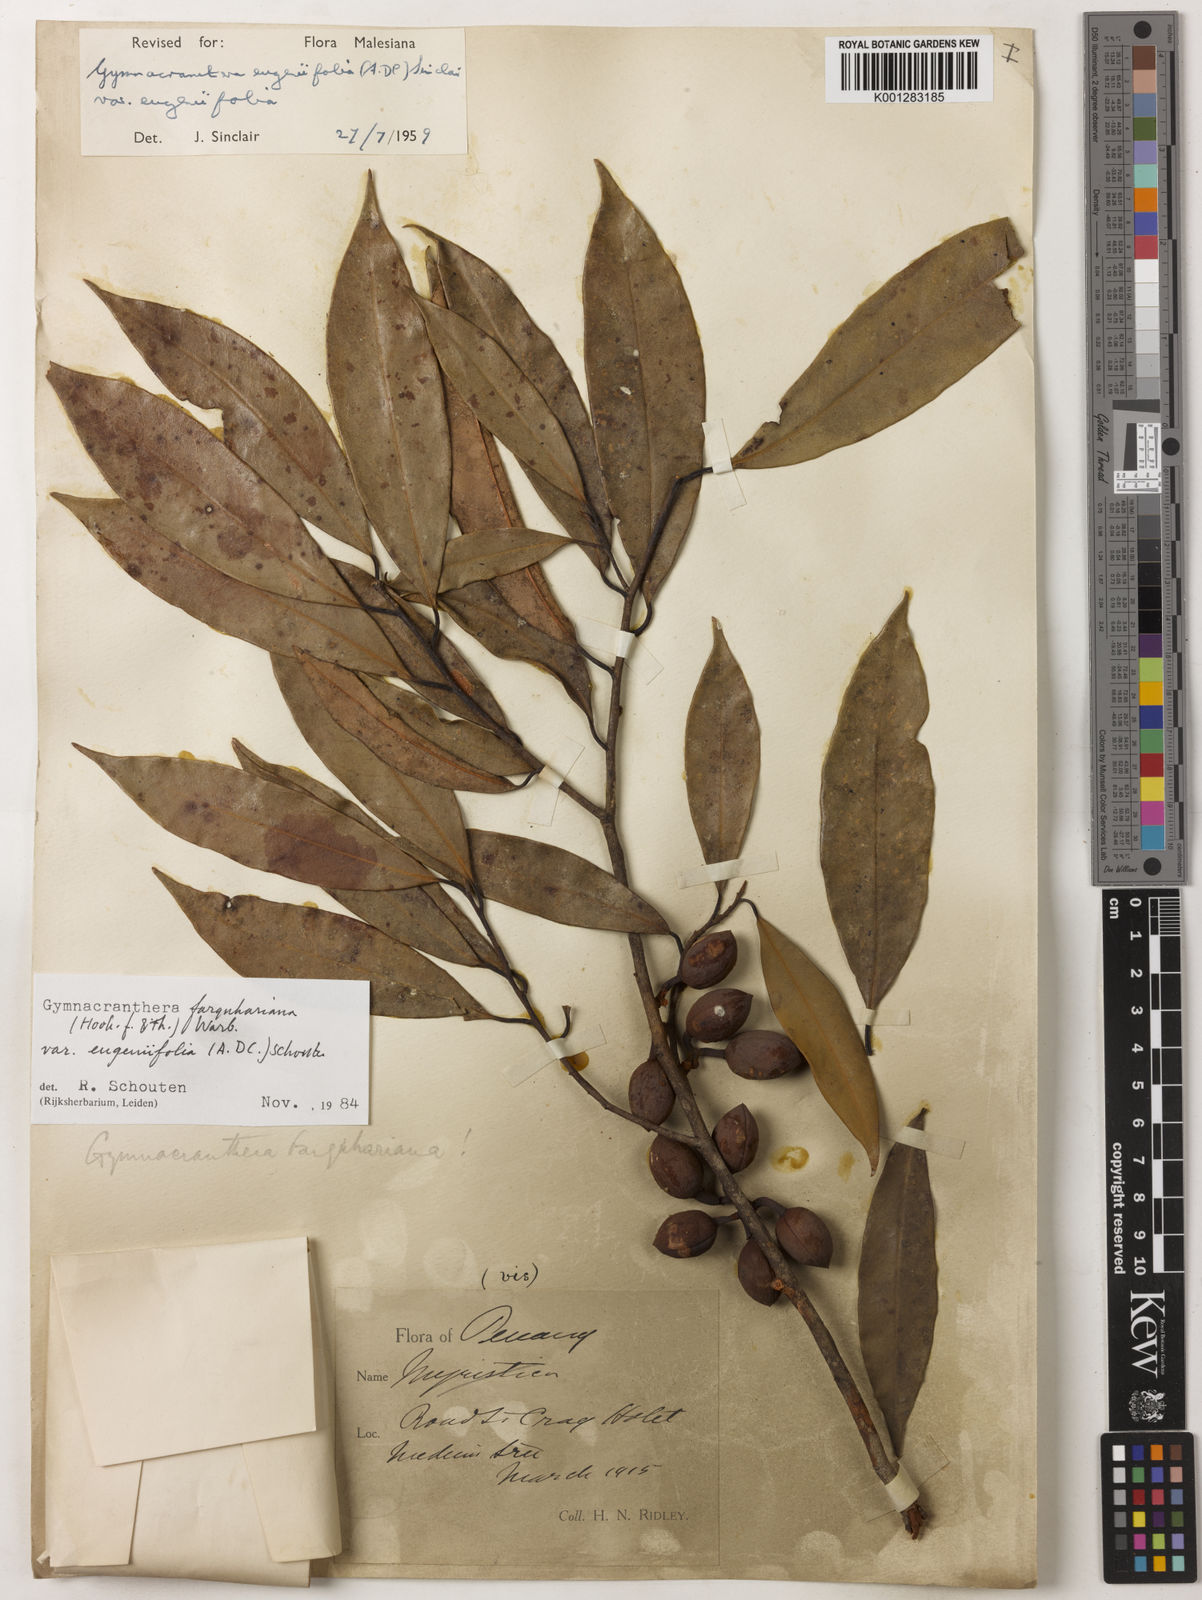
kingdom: Plantae
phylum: Tracheophyta
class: Magnoliopsida
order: Magnoliales
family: Myristicaceae
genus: Gymnacranthera
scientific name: Gymnacranthera farquhariana
